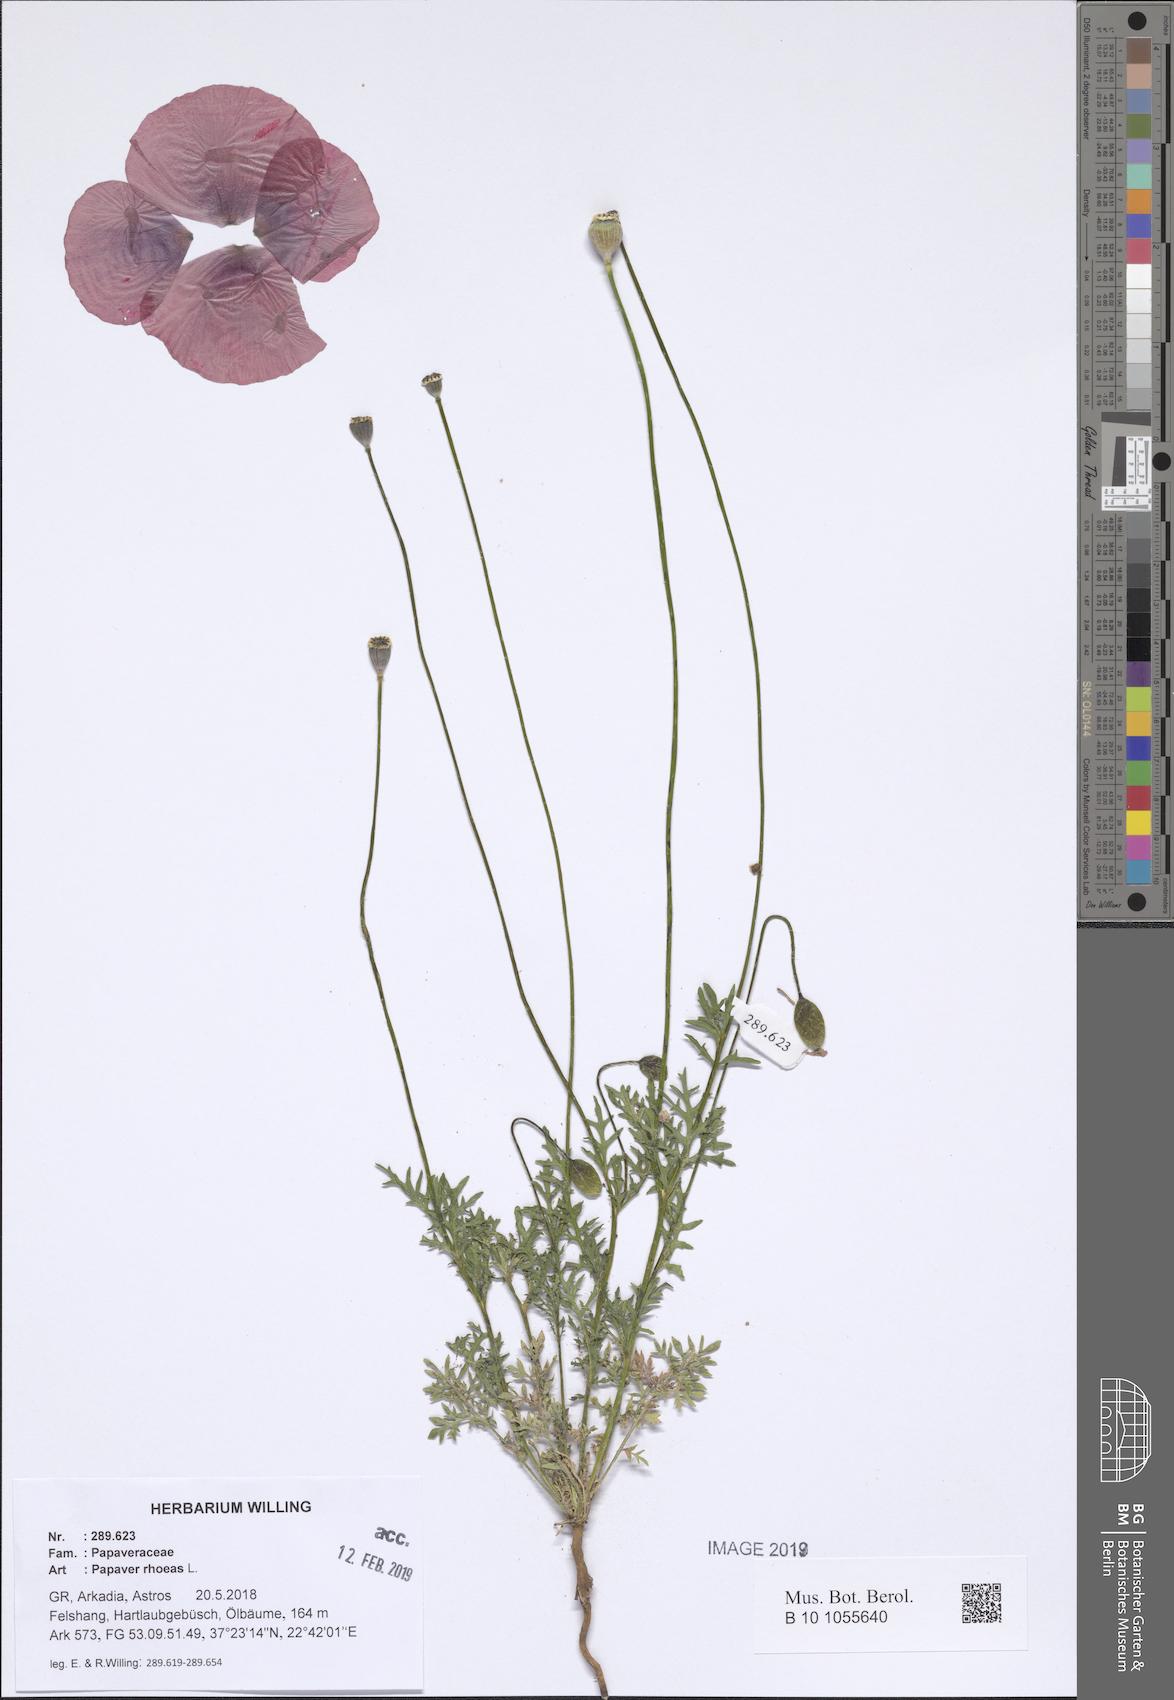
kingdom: Plantae
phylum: Tracheophyta
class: Magnoliopsida
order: Ranunculales
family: Papaveraceae
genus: Papaver
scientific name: Papaver rhoeas
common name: Corn poppy
